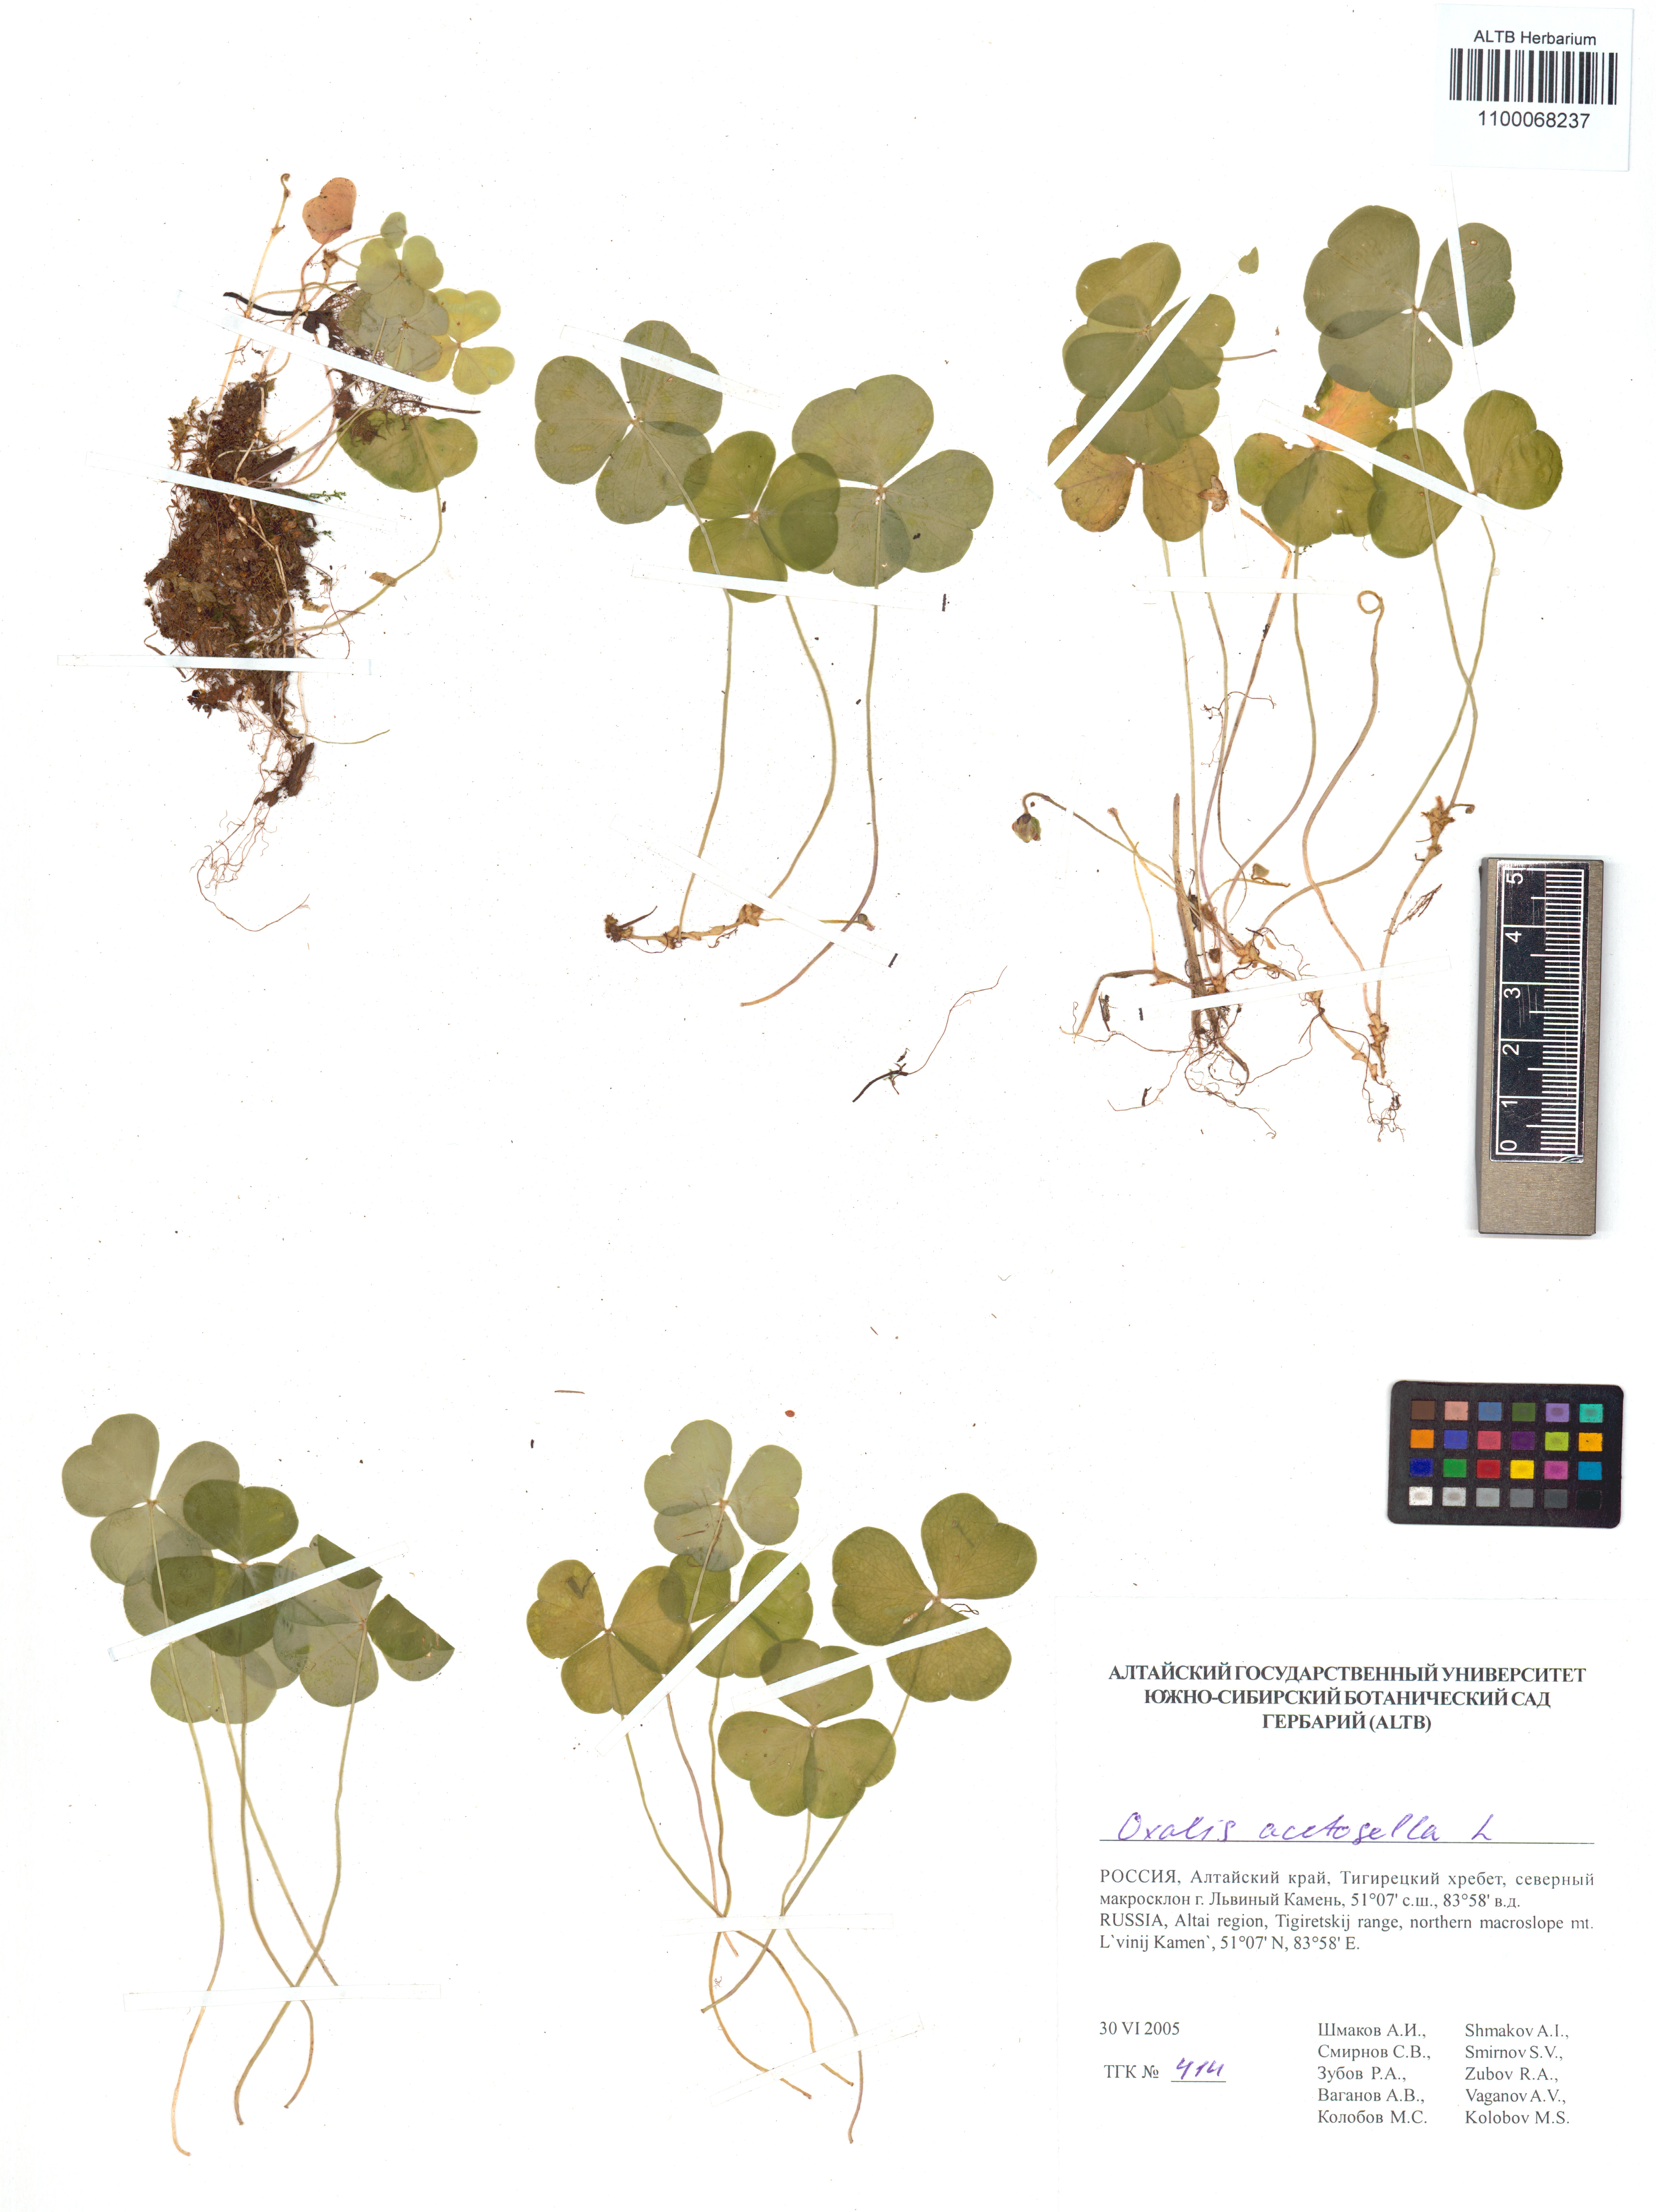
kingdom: Plantae
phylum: Tracheophyta
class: Magnoliopsida
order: Oxalidales
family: Oxalidaceae
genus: Oxalis
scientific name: Oxalis acetosella
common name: Wood-sorrel
